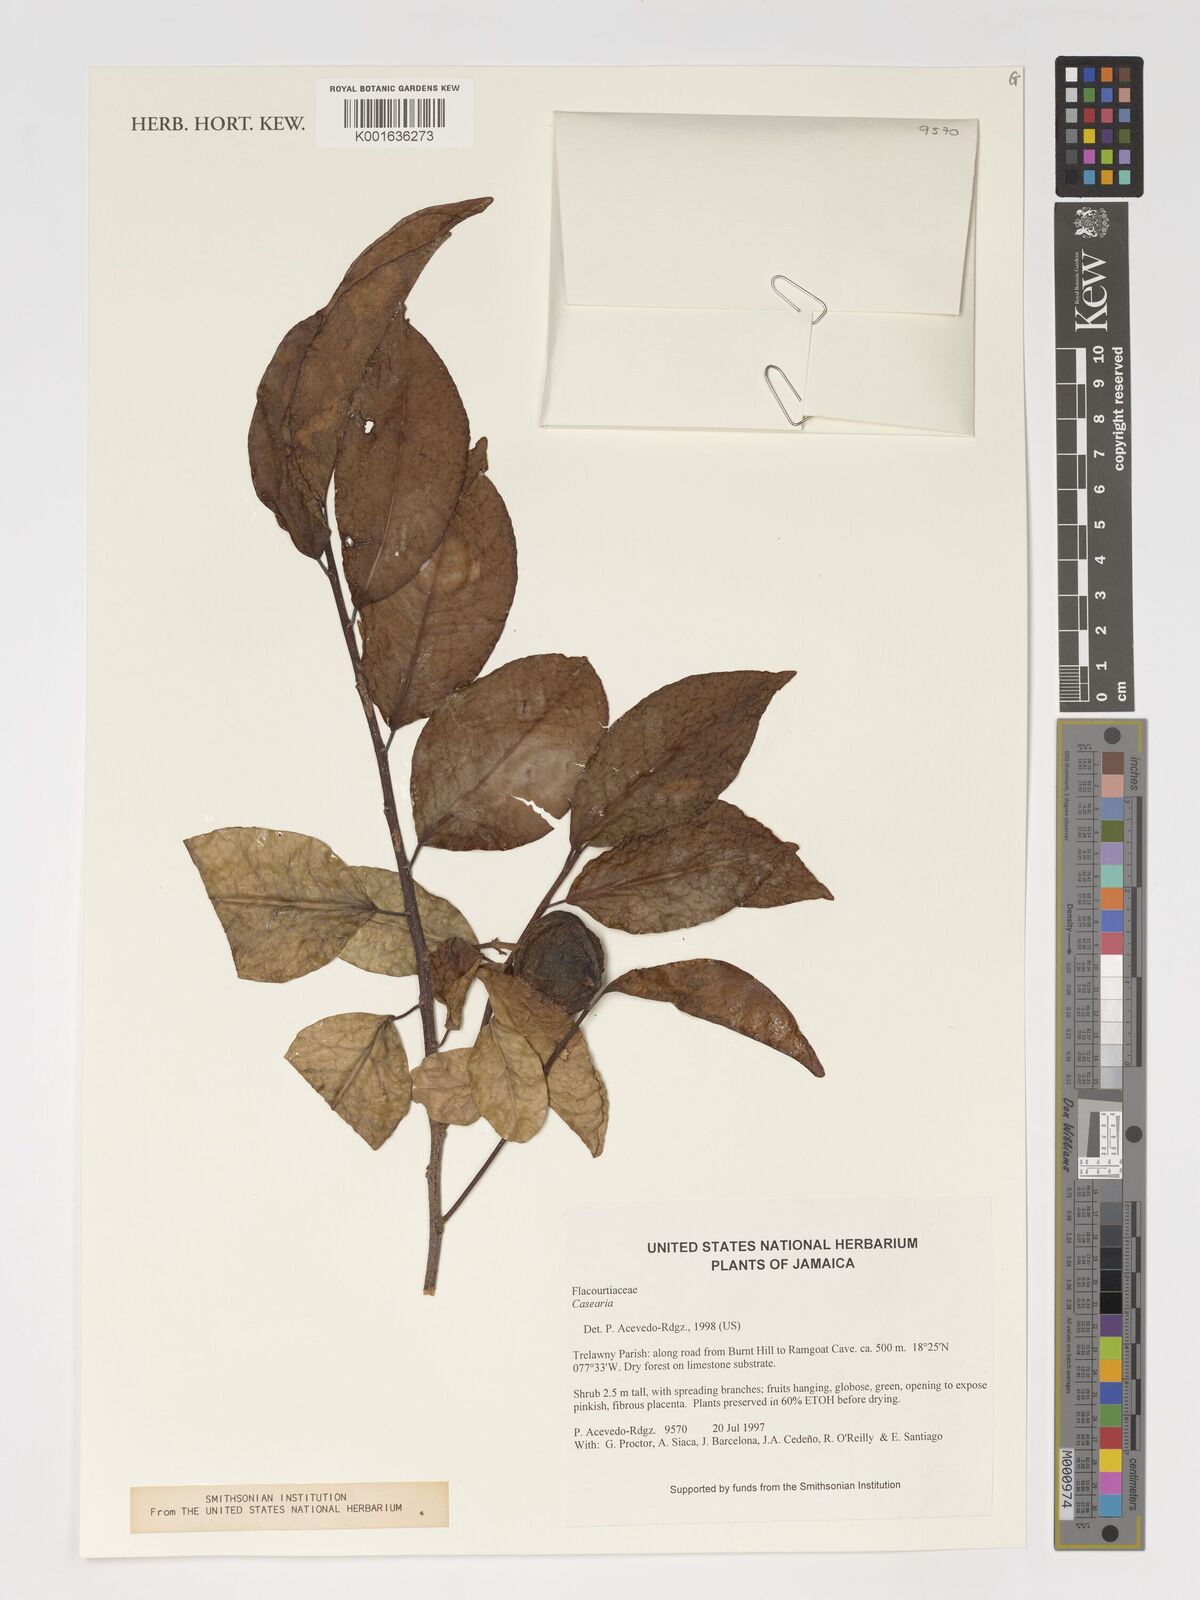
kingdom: Plantae
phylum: Tracheophyta
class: Magnoliopsida
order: Malpighiales
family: Salicaceae
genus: Casearia
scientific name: Casearia
